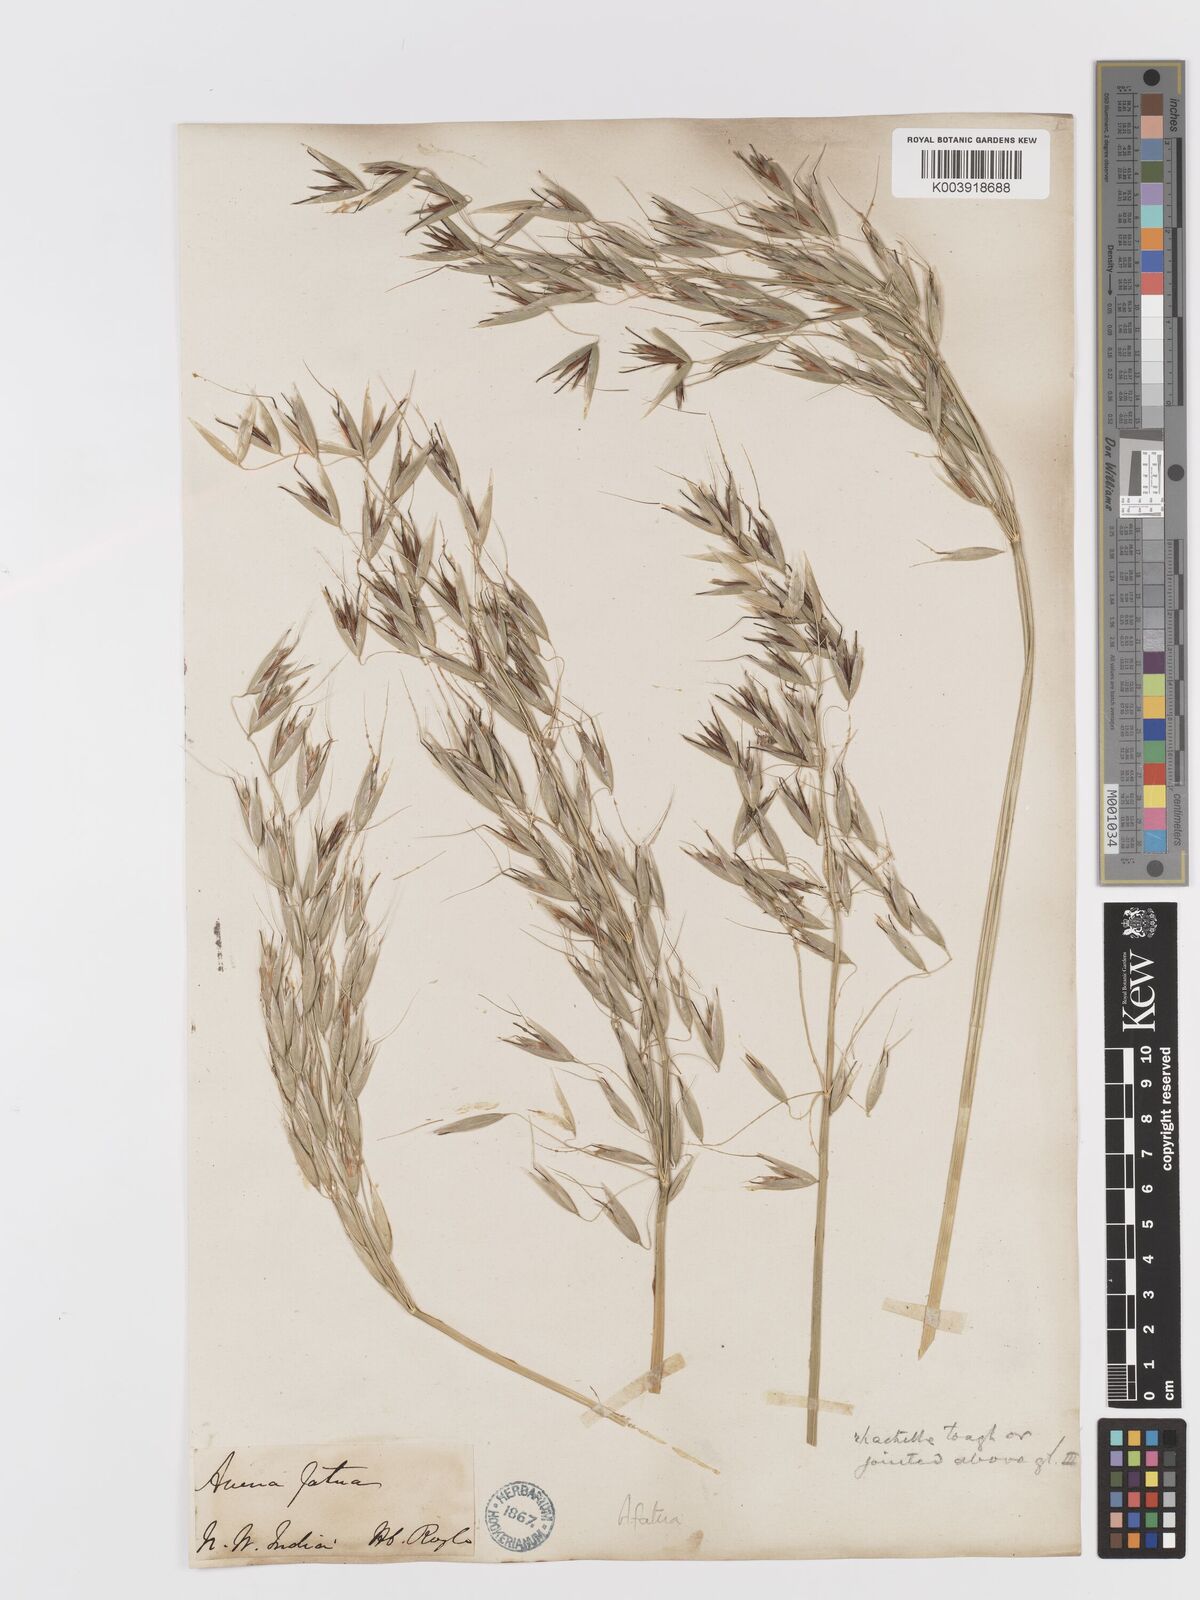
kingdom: Plantae
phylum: Tracheophyta
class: Liliopsida
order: Poales
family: Poaceae
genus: Avena
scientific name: Avena fatua
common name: Wild oat
